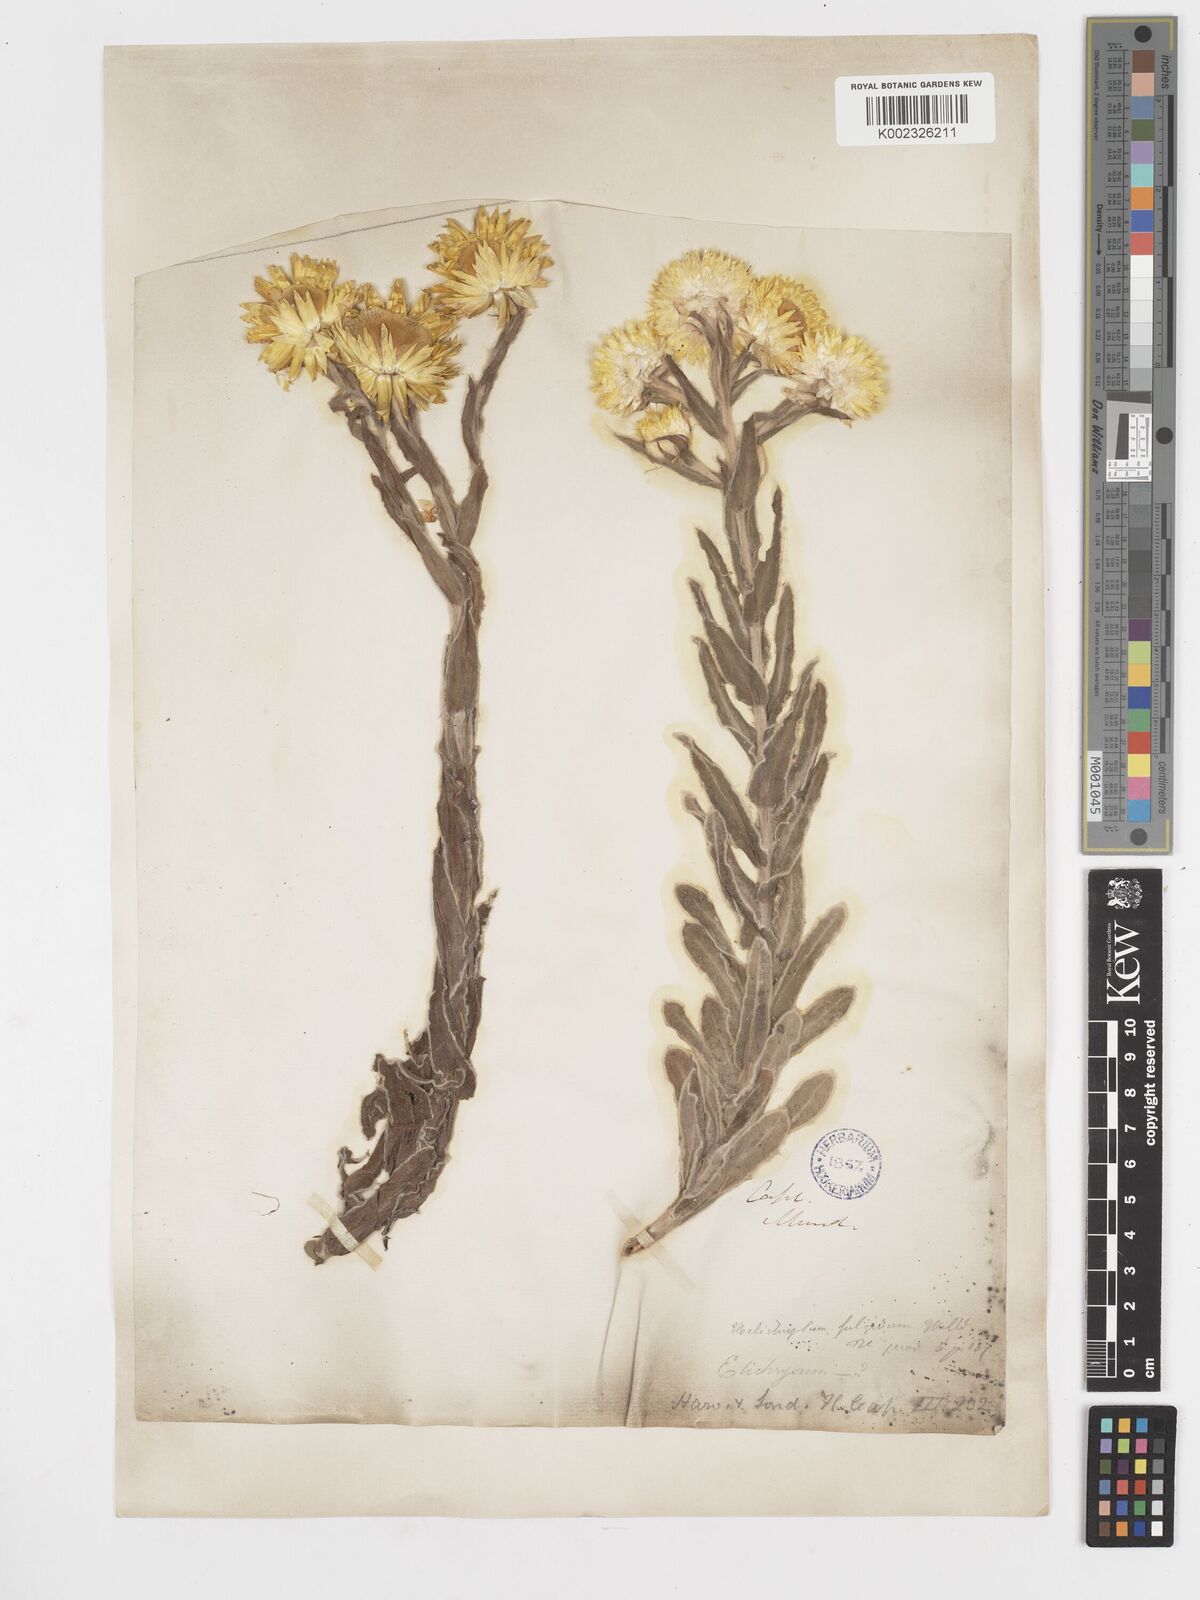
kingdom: Plantae
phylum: Tracheophyta
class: Magnoliopsida
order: Asterales
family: Asteraceae
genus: Helichrysum
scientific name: Helichrysum aureum
